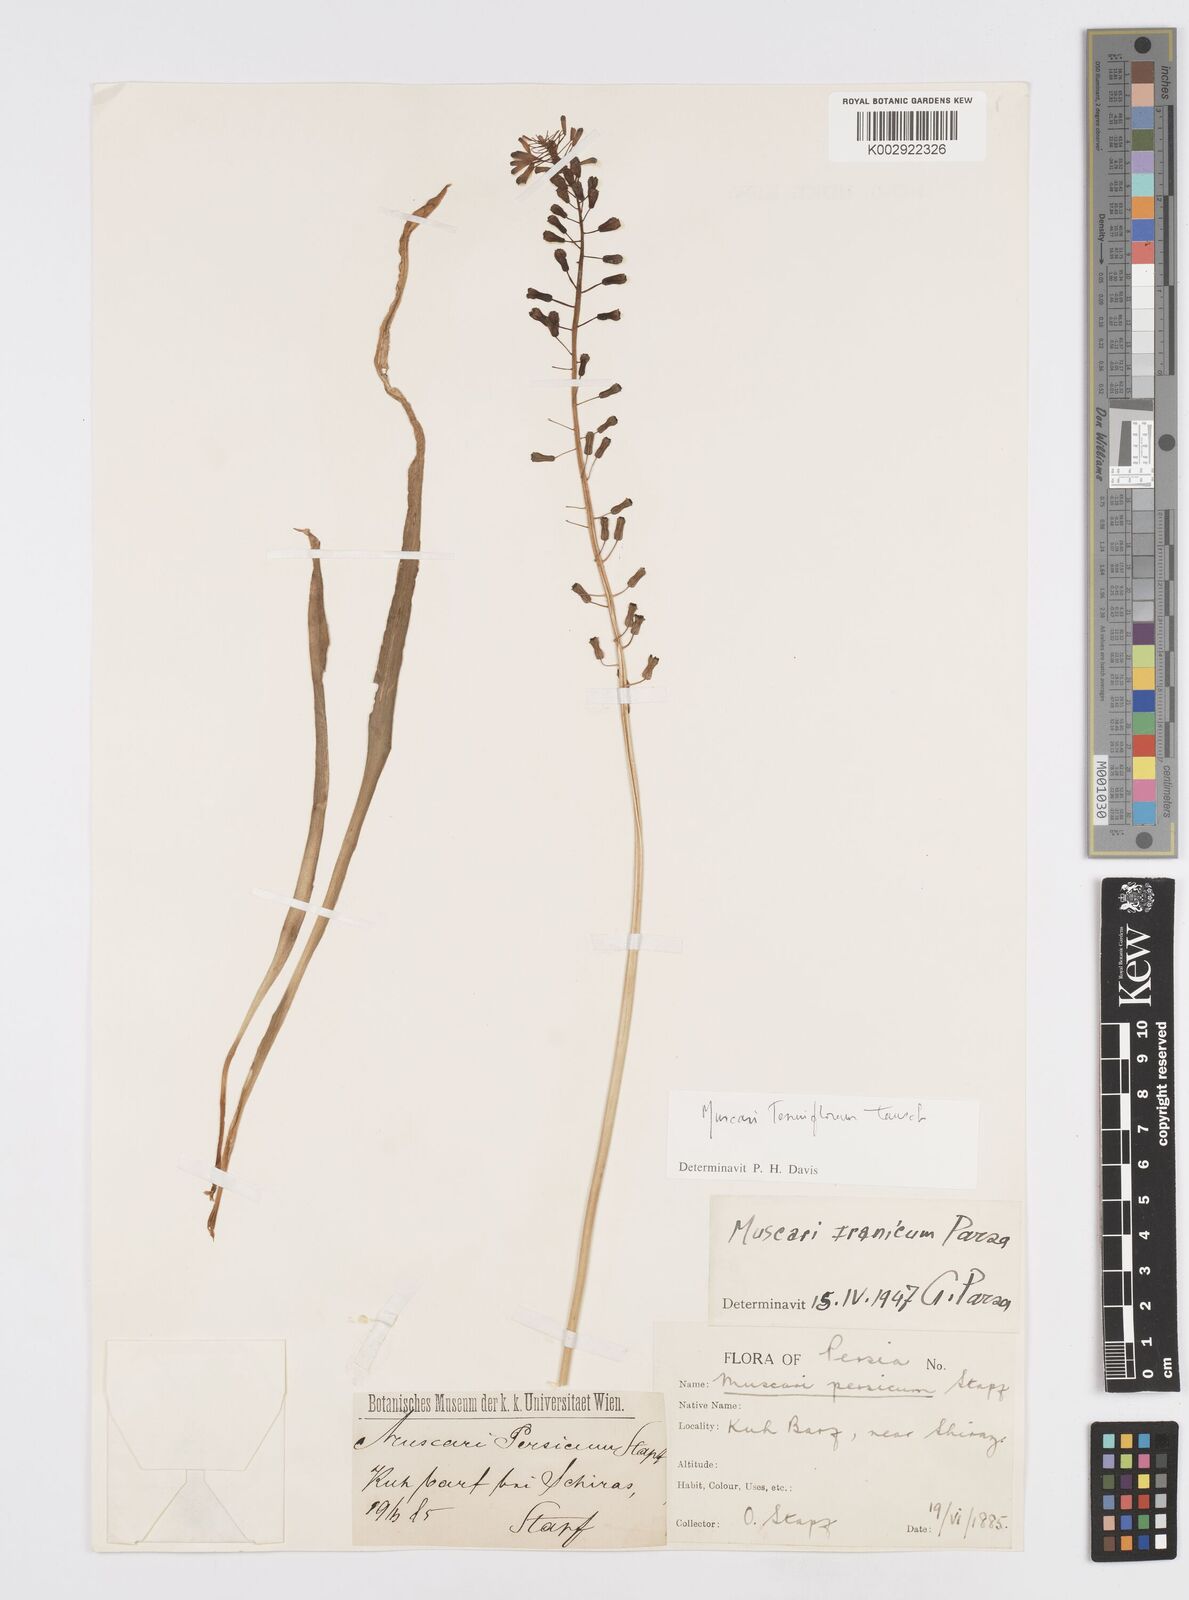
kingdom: Animalia
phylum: Mollusca
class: Cephalopoda
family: Neocomitidae
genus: Leopoldia
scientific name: Leopoldia
